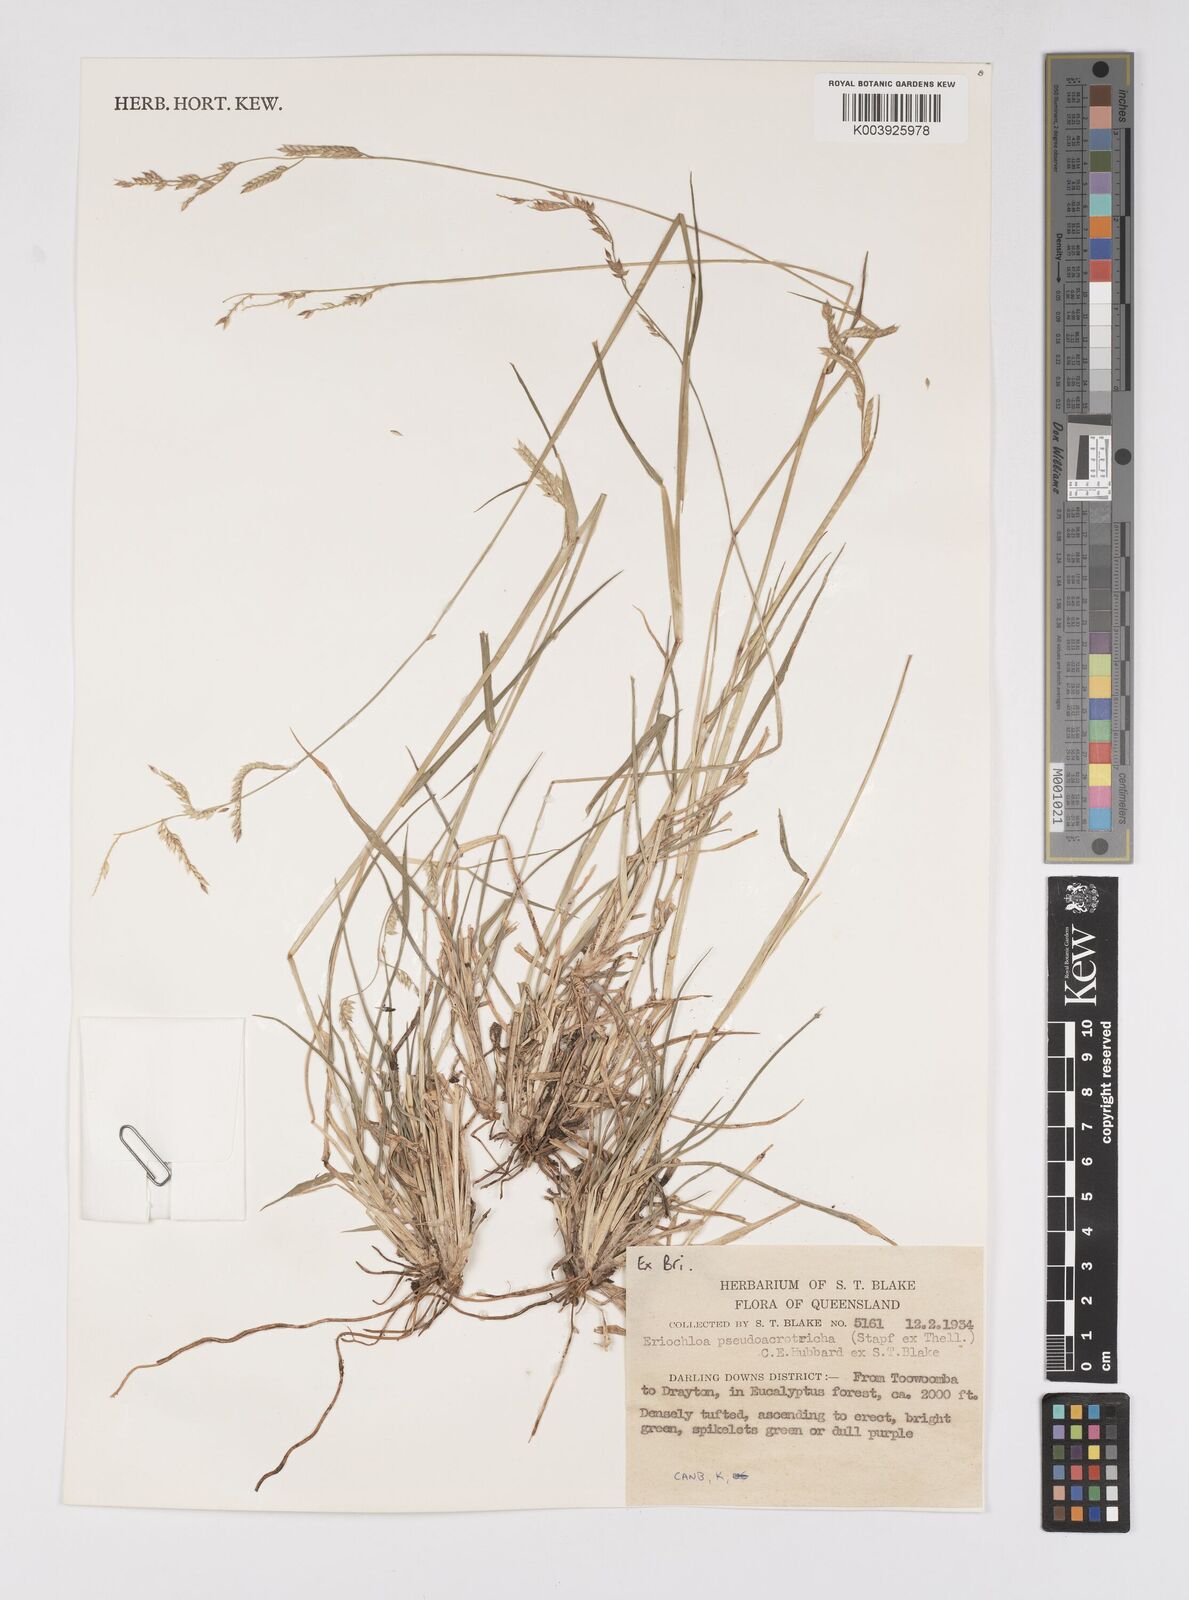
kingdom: Plantae
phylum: Tracheophyta
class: Liliopsida
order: Poales
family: Poaceae
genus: Eriochloa
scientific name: Eriochloa pseudoacrotricha
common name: Perennial cup-grass
